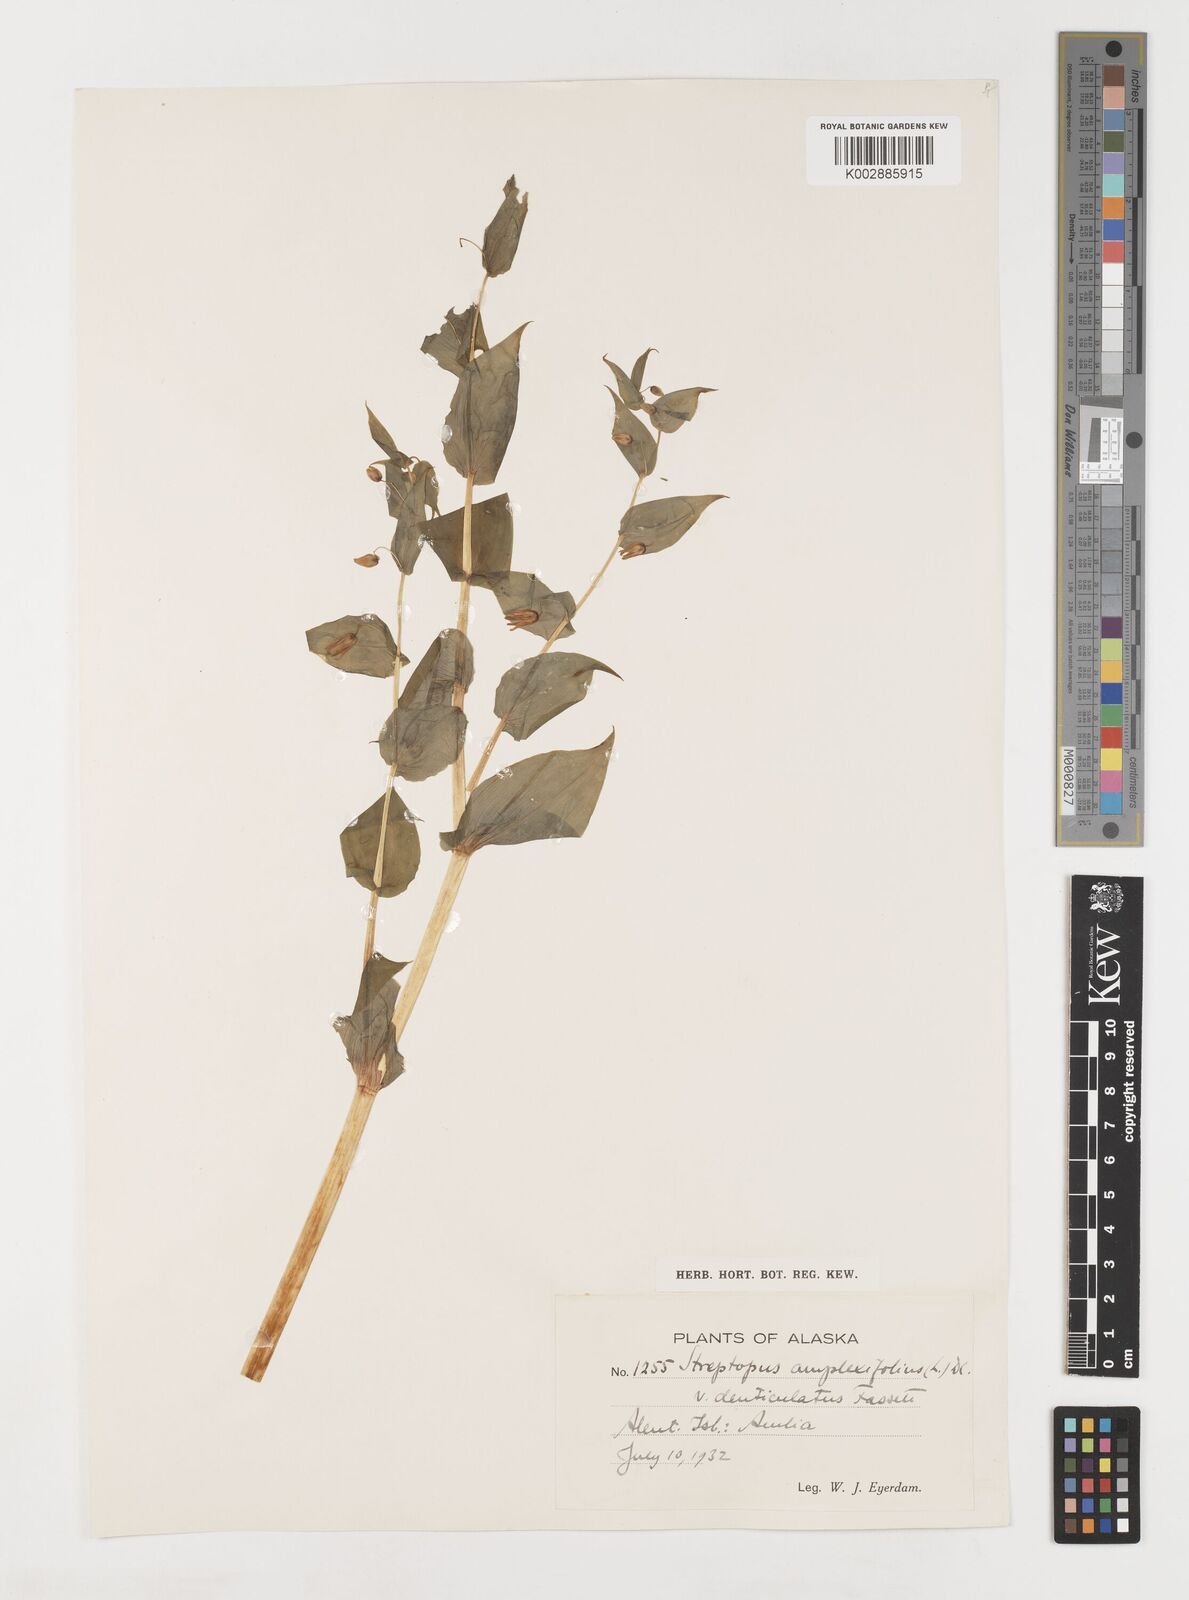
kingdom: Plantae
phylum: Tracheophyta
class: Liliopsida
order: Liliales
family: Liliaceae
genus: Streptopus
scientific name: Streptopus
